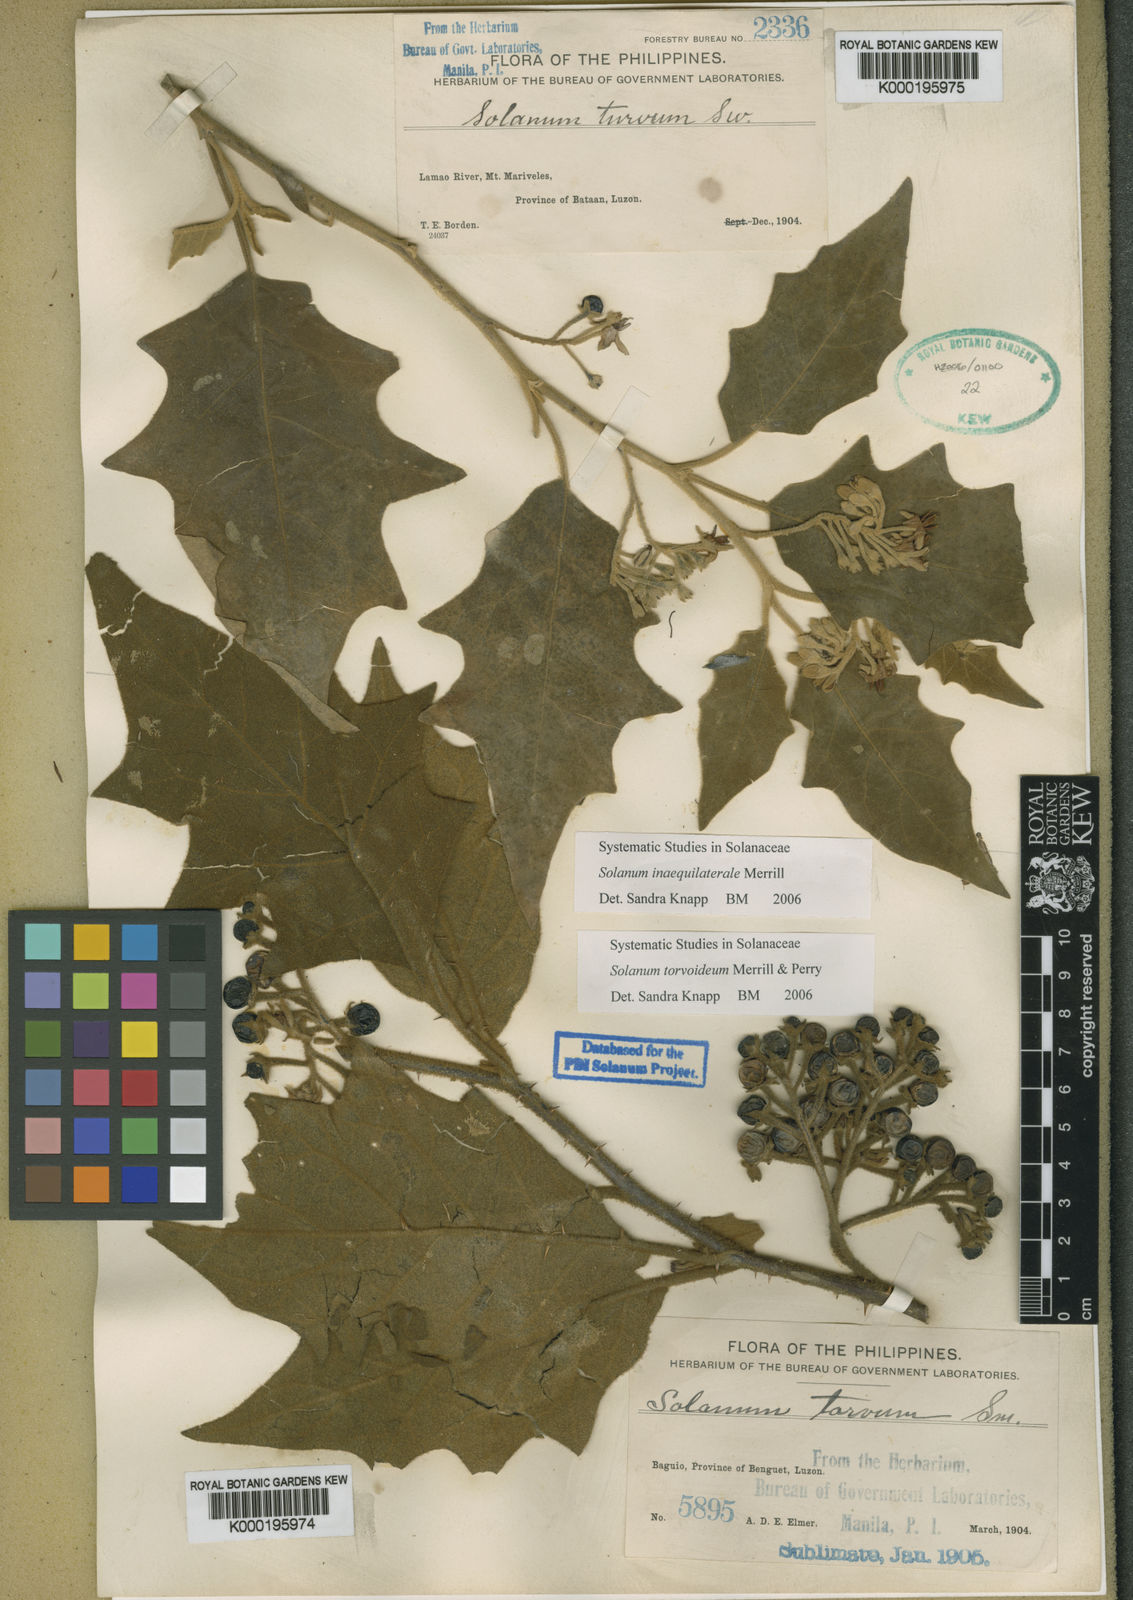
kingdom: Plantae
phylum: Tracheophyta
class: Magnoliopsida
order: Solanales
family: Solanaceae
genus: Solanum
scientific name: Solanum pseudosaponaceum
